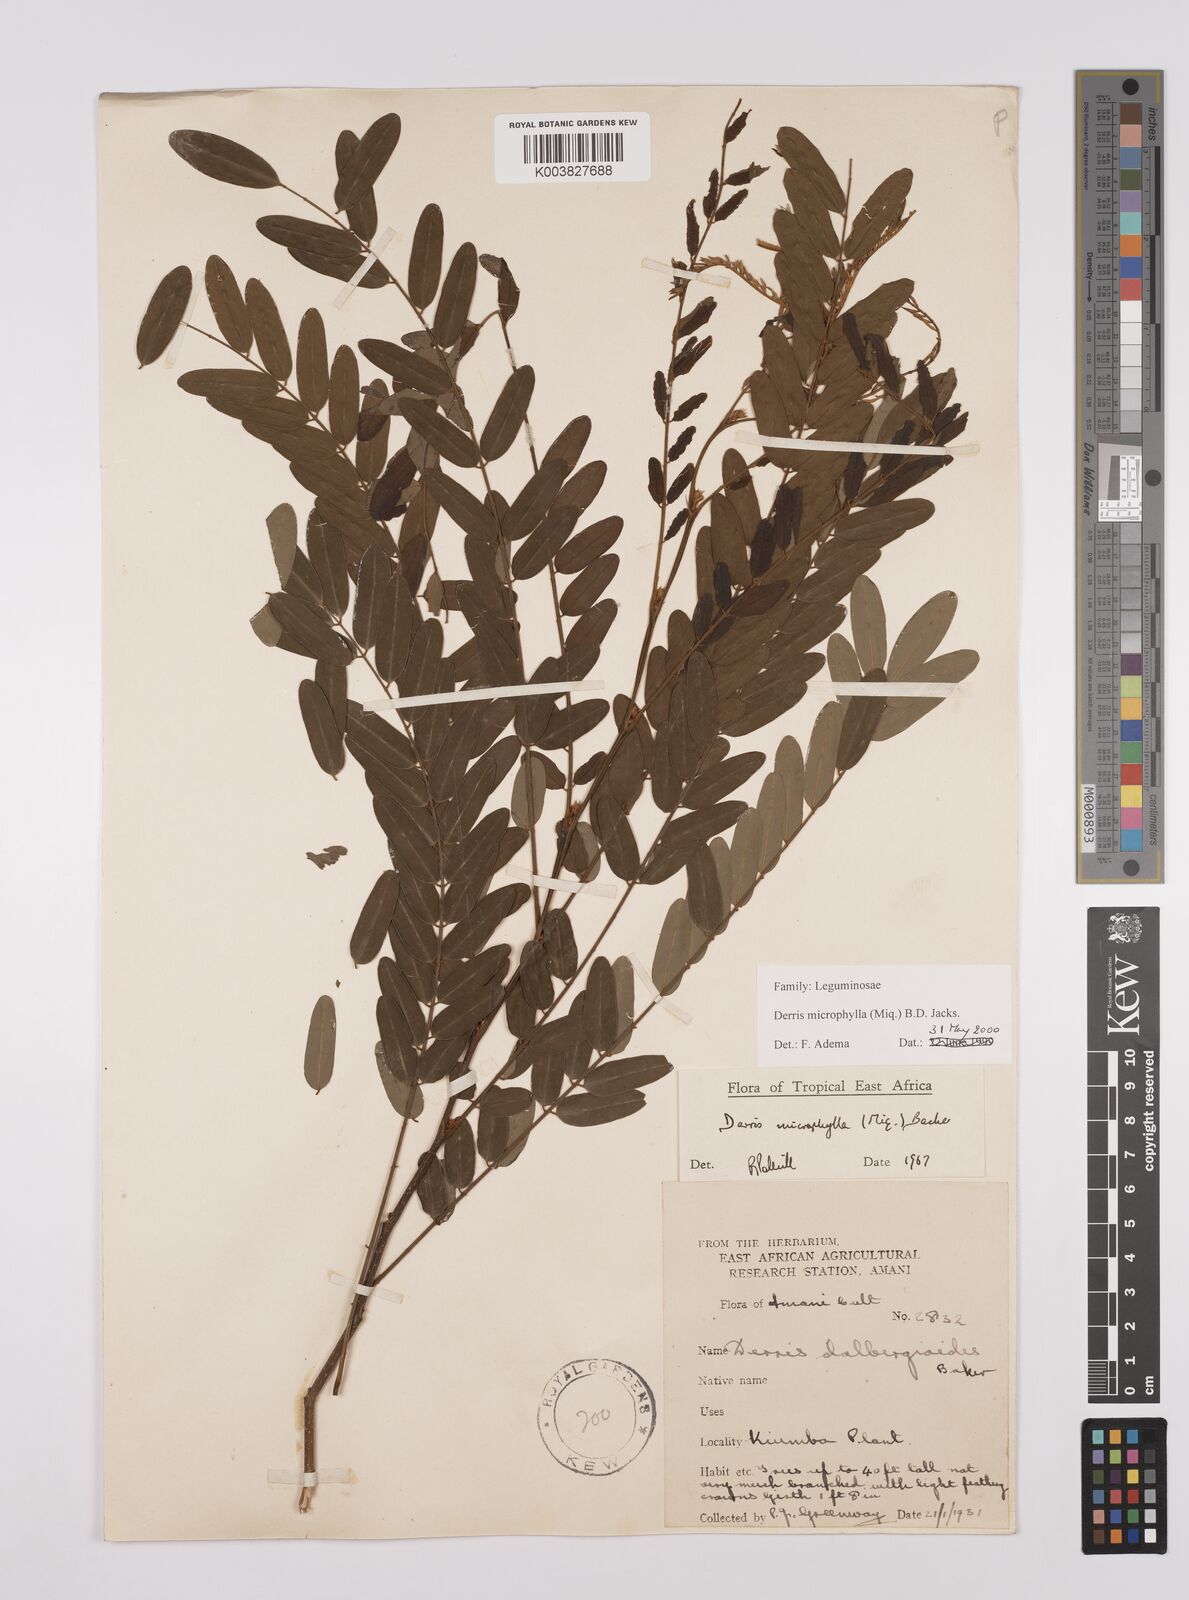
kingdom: Plantae
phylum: Tracheophyta
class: Magnoliopsida
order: Fabales
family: Fabaceae
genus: Brachypterum
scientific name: Brachypterum microphyllum
